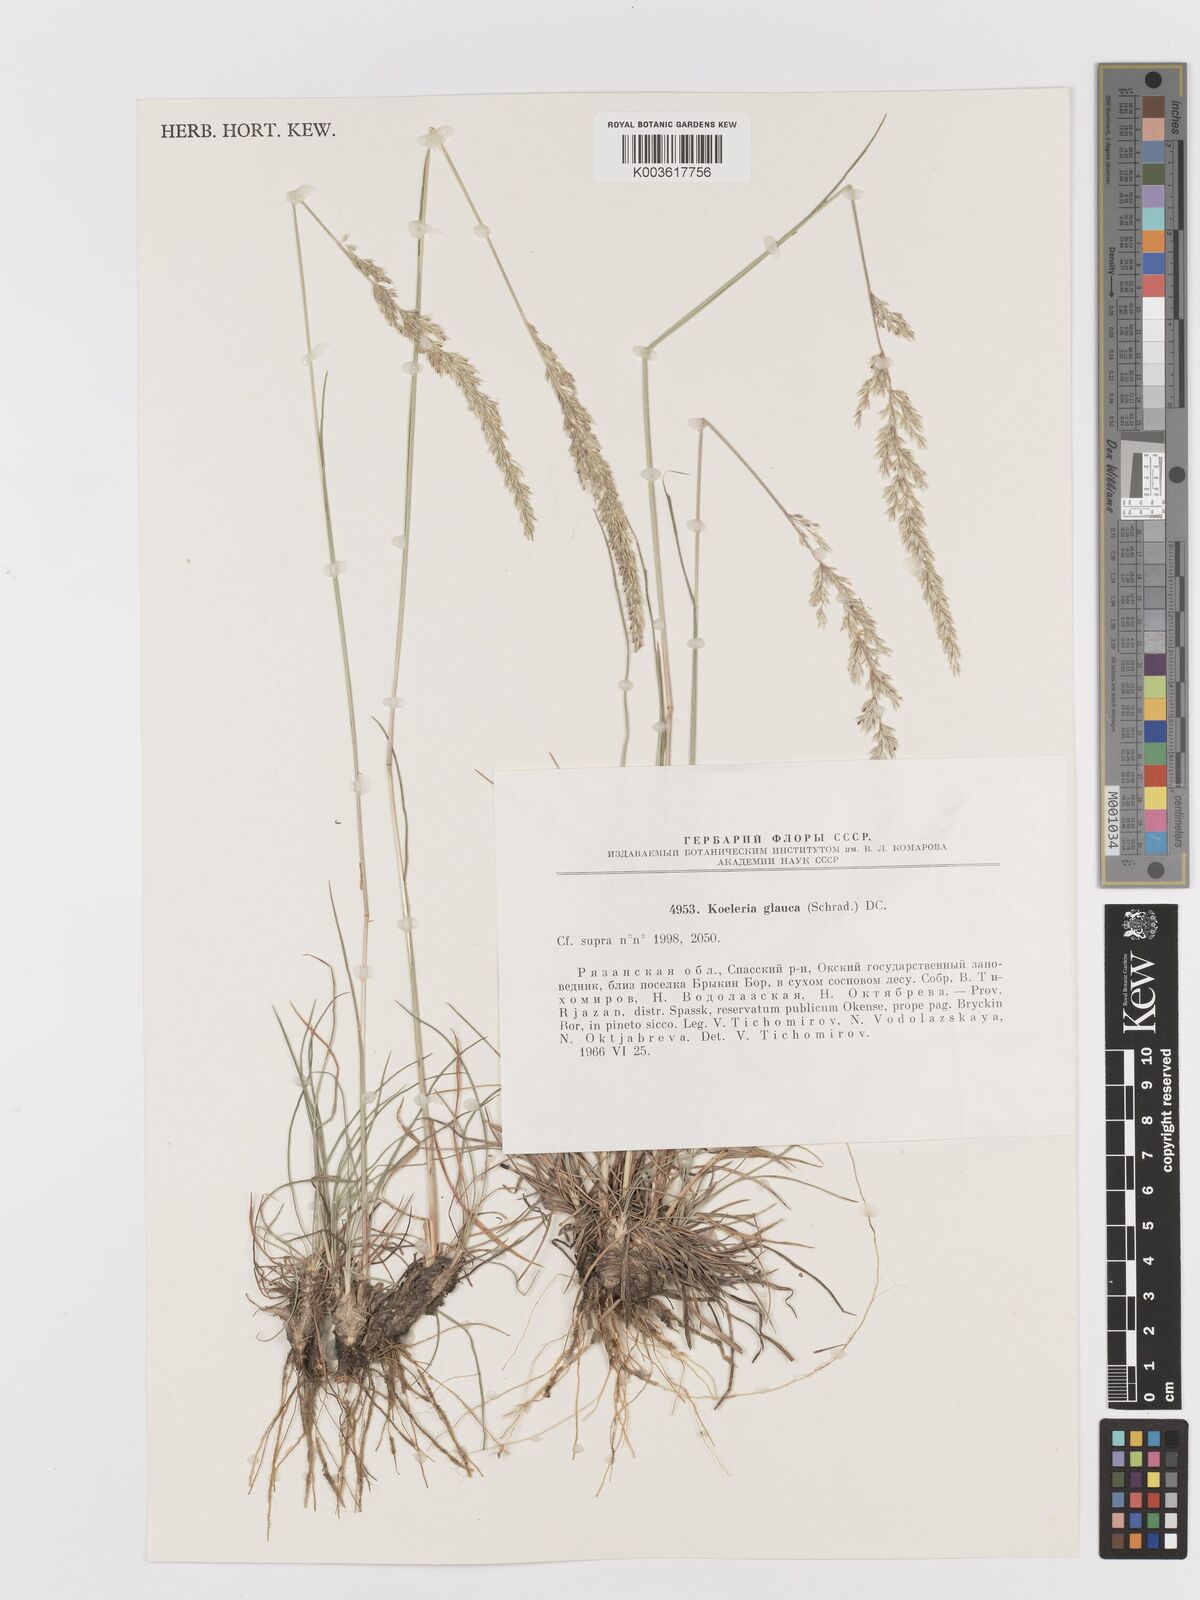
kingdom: Plantae
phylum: Tracheophyta
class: Liliopsida
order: Poales
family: Poaceae
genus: Koeleria
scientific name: Koeleria glauca
